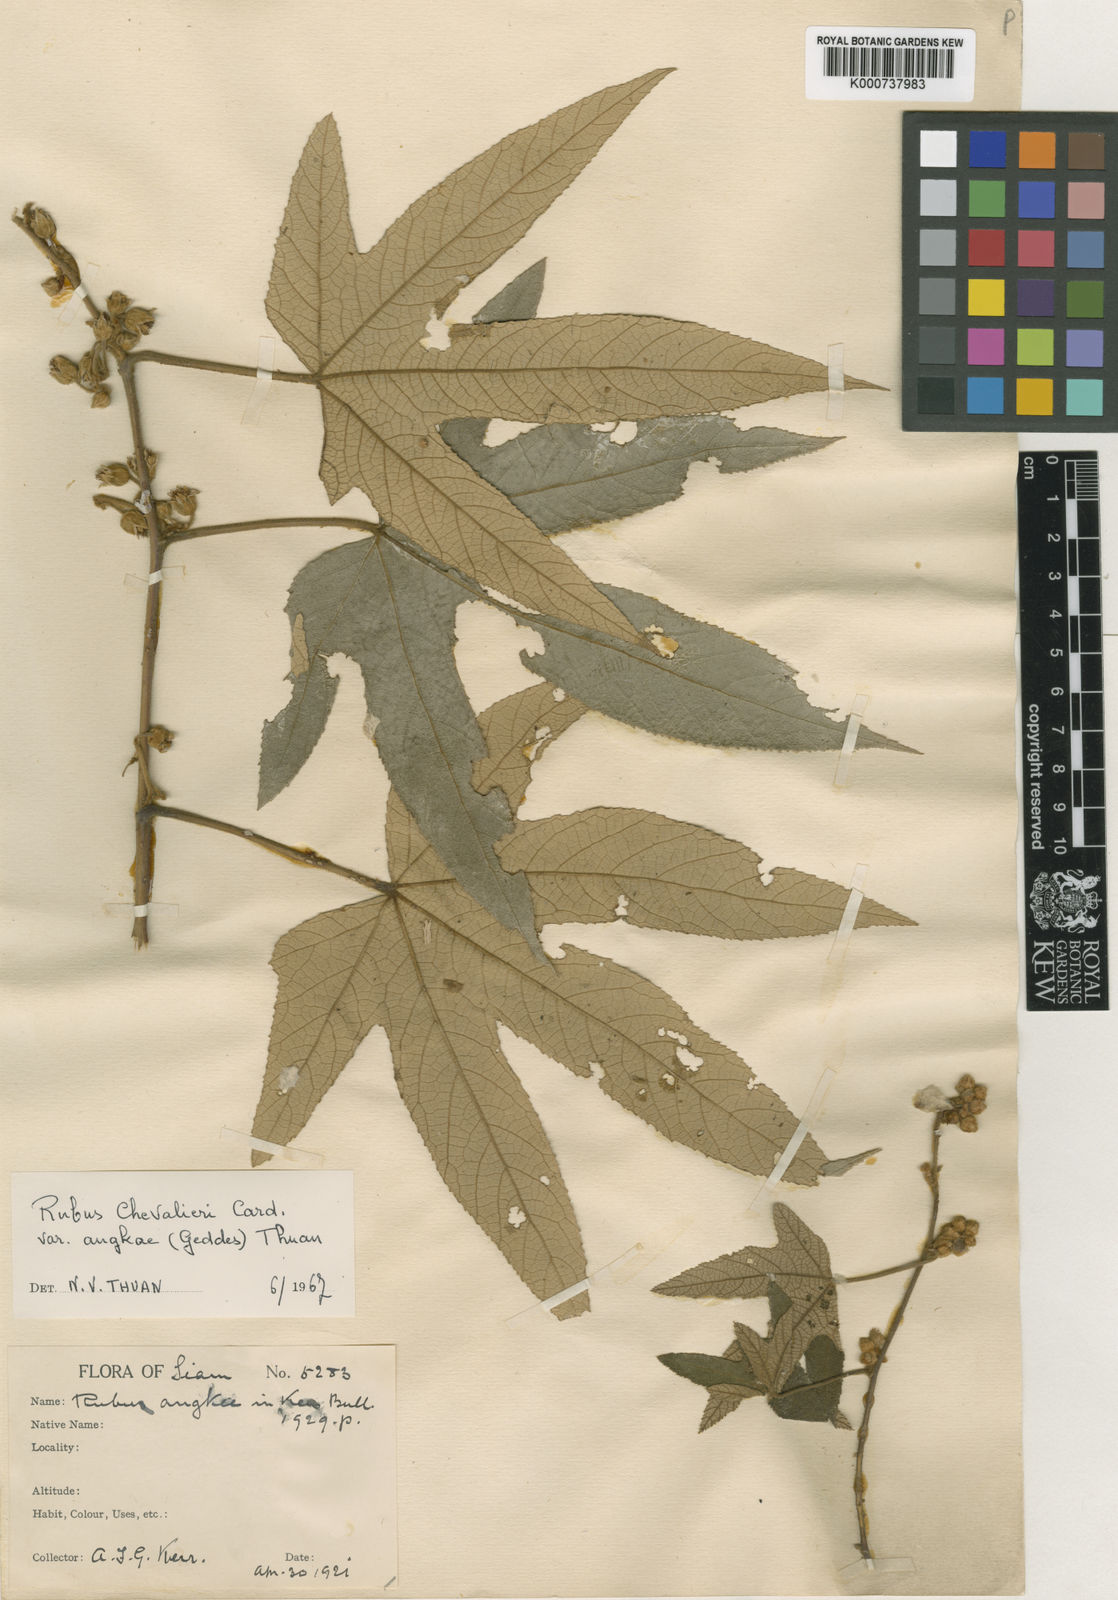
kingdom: Plantae
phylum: Tracheophyta
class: Magnoliopsida
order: Rosales
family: Rosaceae
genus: Rubus
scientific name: Rubus
